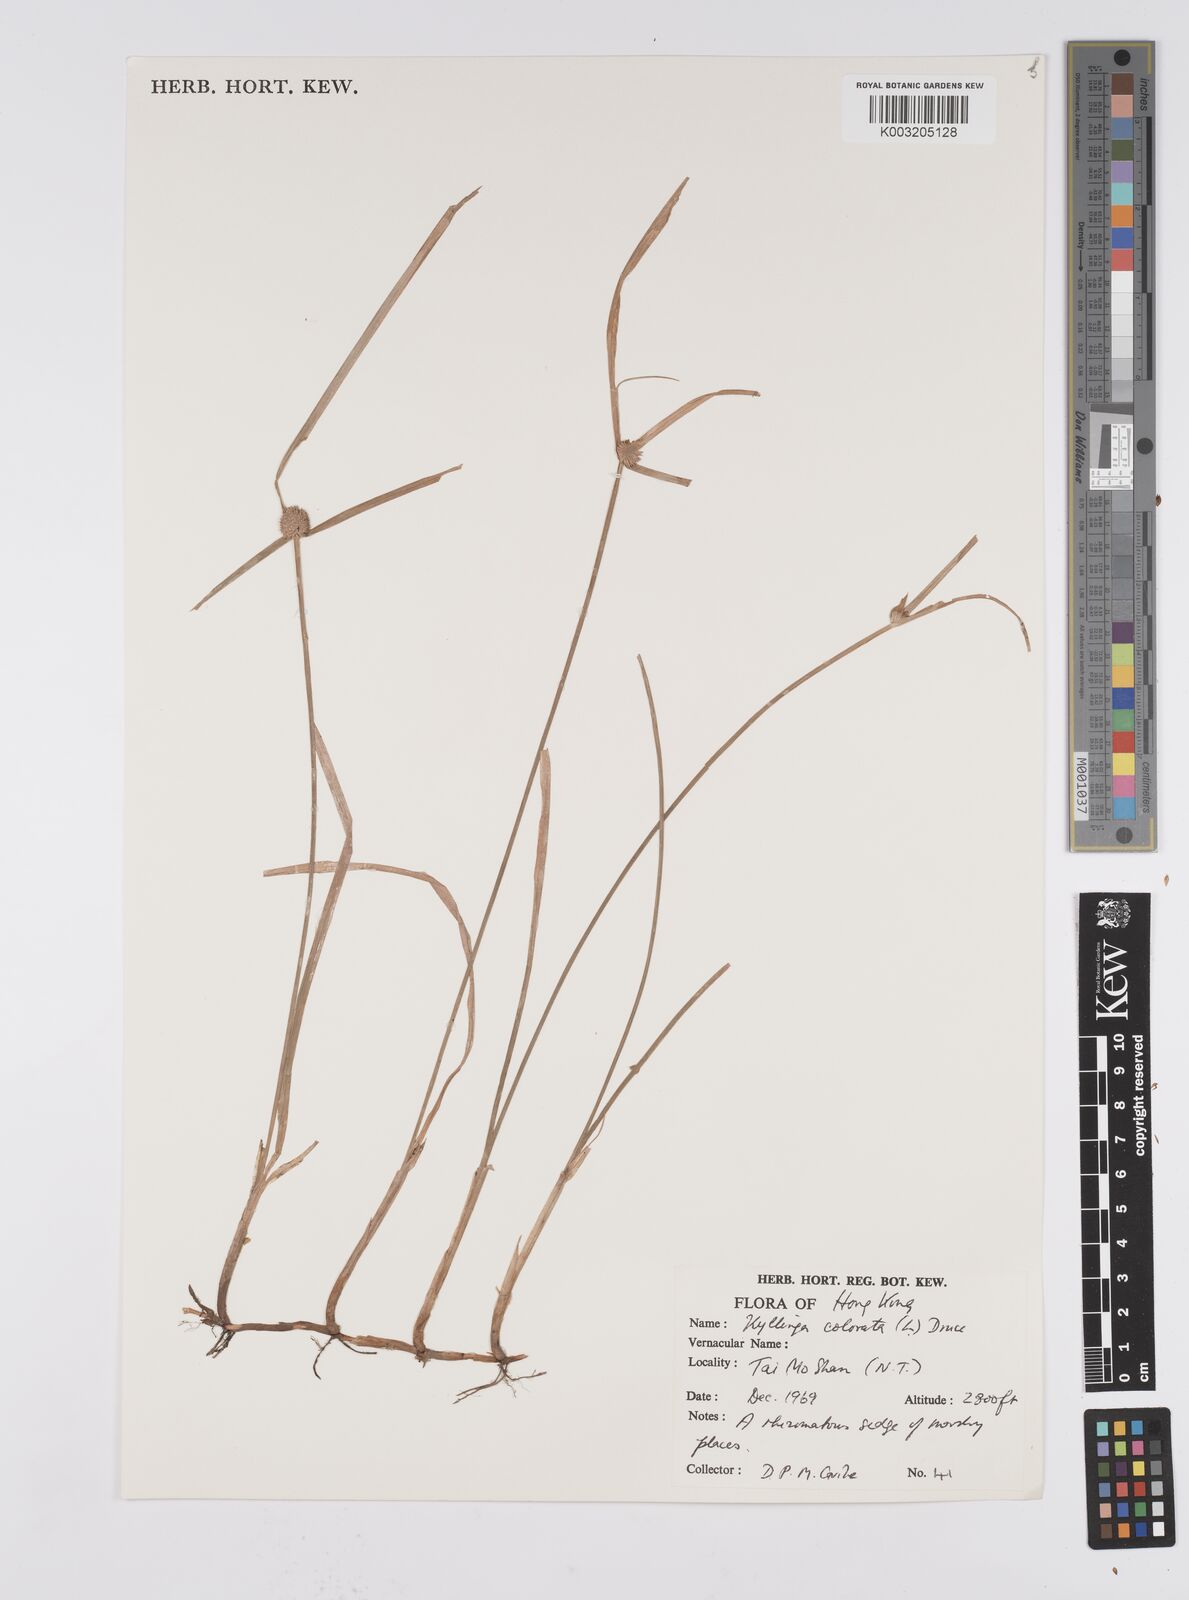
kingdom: Plantae
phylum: Tracheophyta
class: Liliopsida
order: Poales
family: Cyperaceae
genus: Cyperus
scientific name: Cyperus brevifolius
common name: Globe kyllinga
